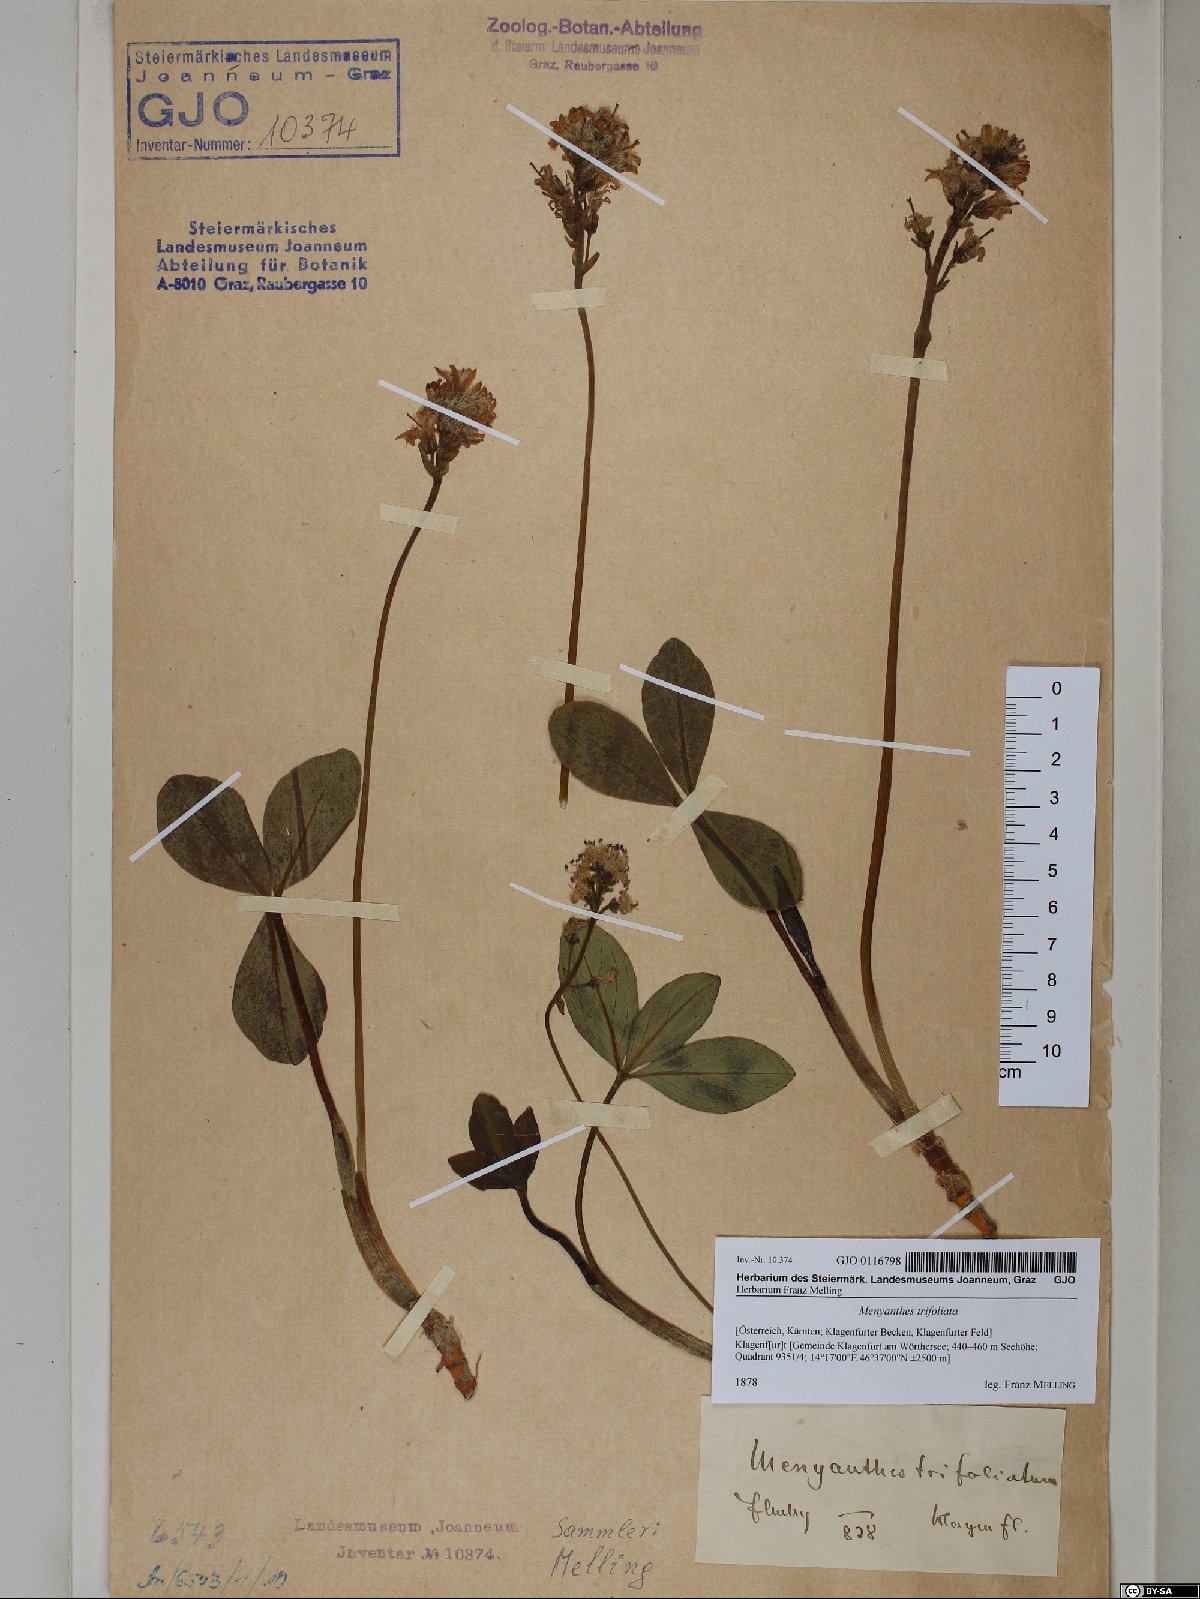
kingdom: Plantae
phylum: Tracheophyta
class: Magnoliopsida
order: Asterales
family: Menyanthaceae
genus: Menyanthes
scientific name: Menyanthes trifoliata
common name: Bogbean
